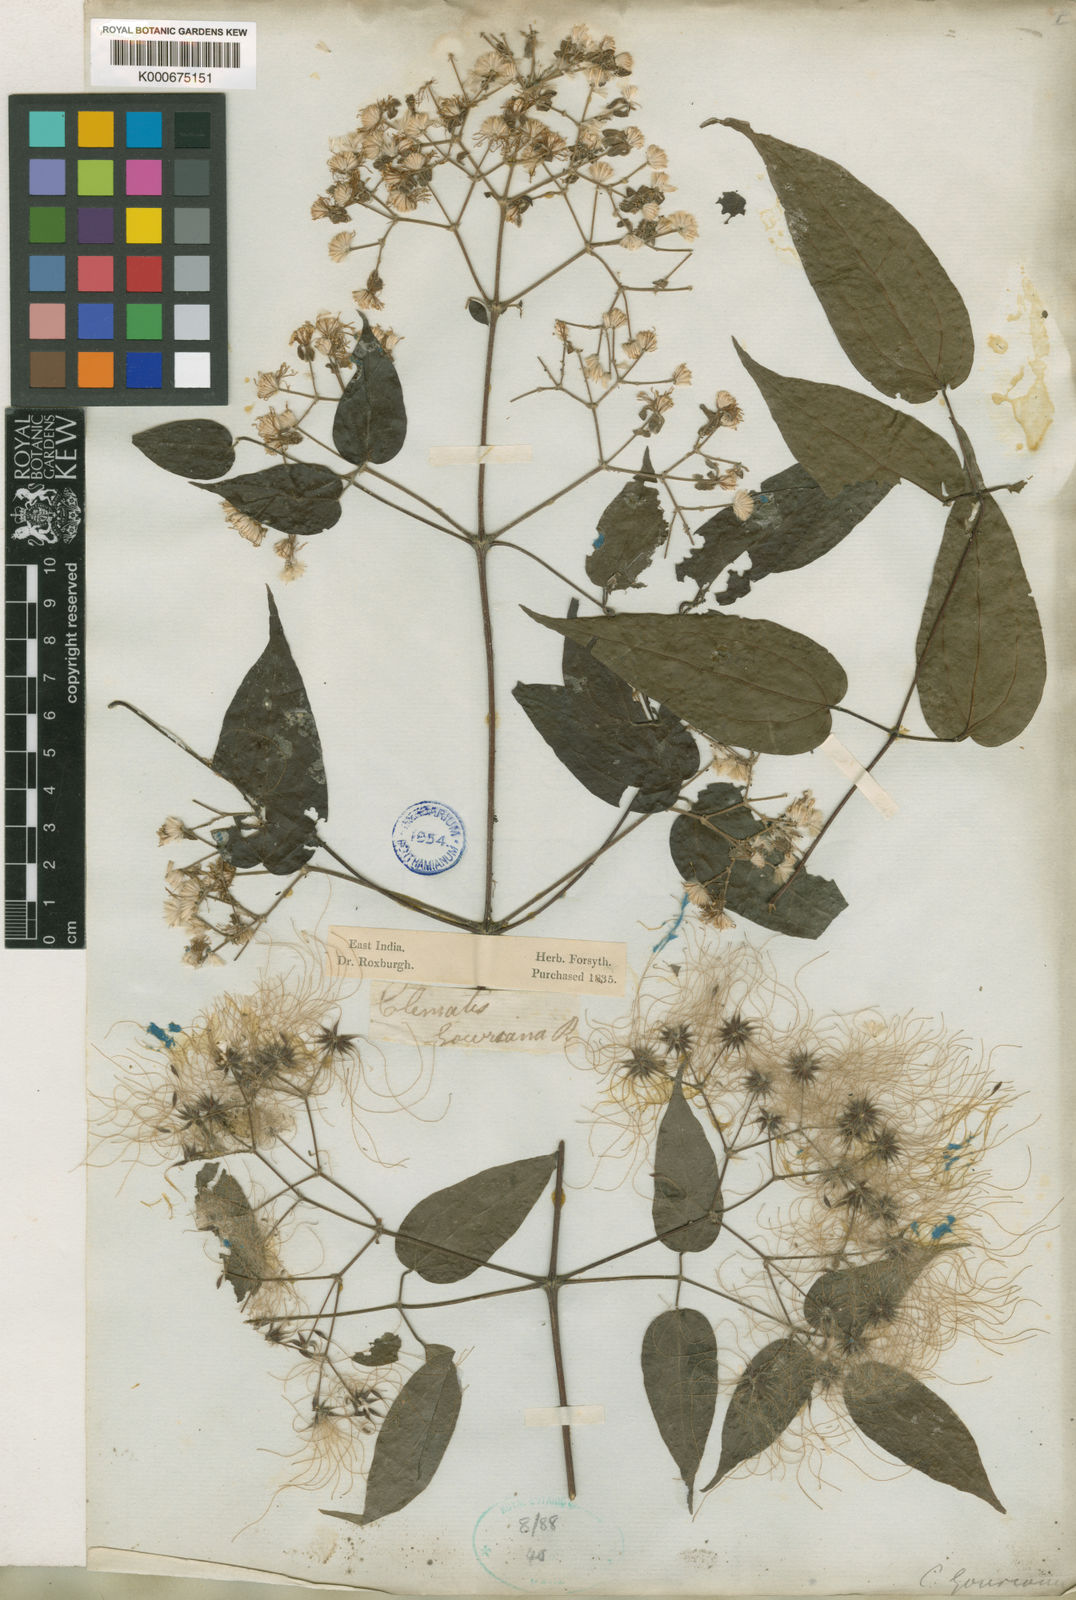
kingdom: Plantae
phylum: Tracheophyta
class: Magnoliopsida
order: Ranunculales
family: Ranunculaceae
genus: Clematis
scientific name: Clematis gouriana
